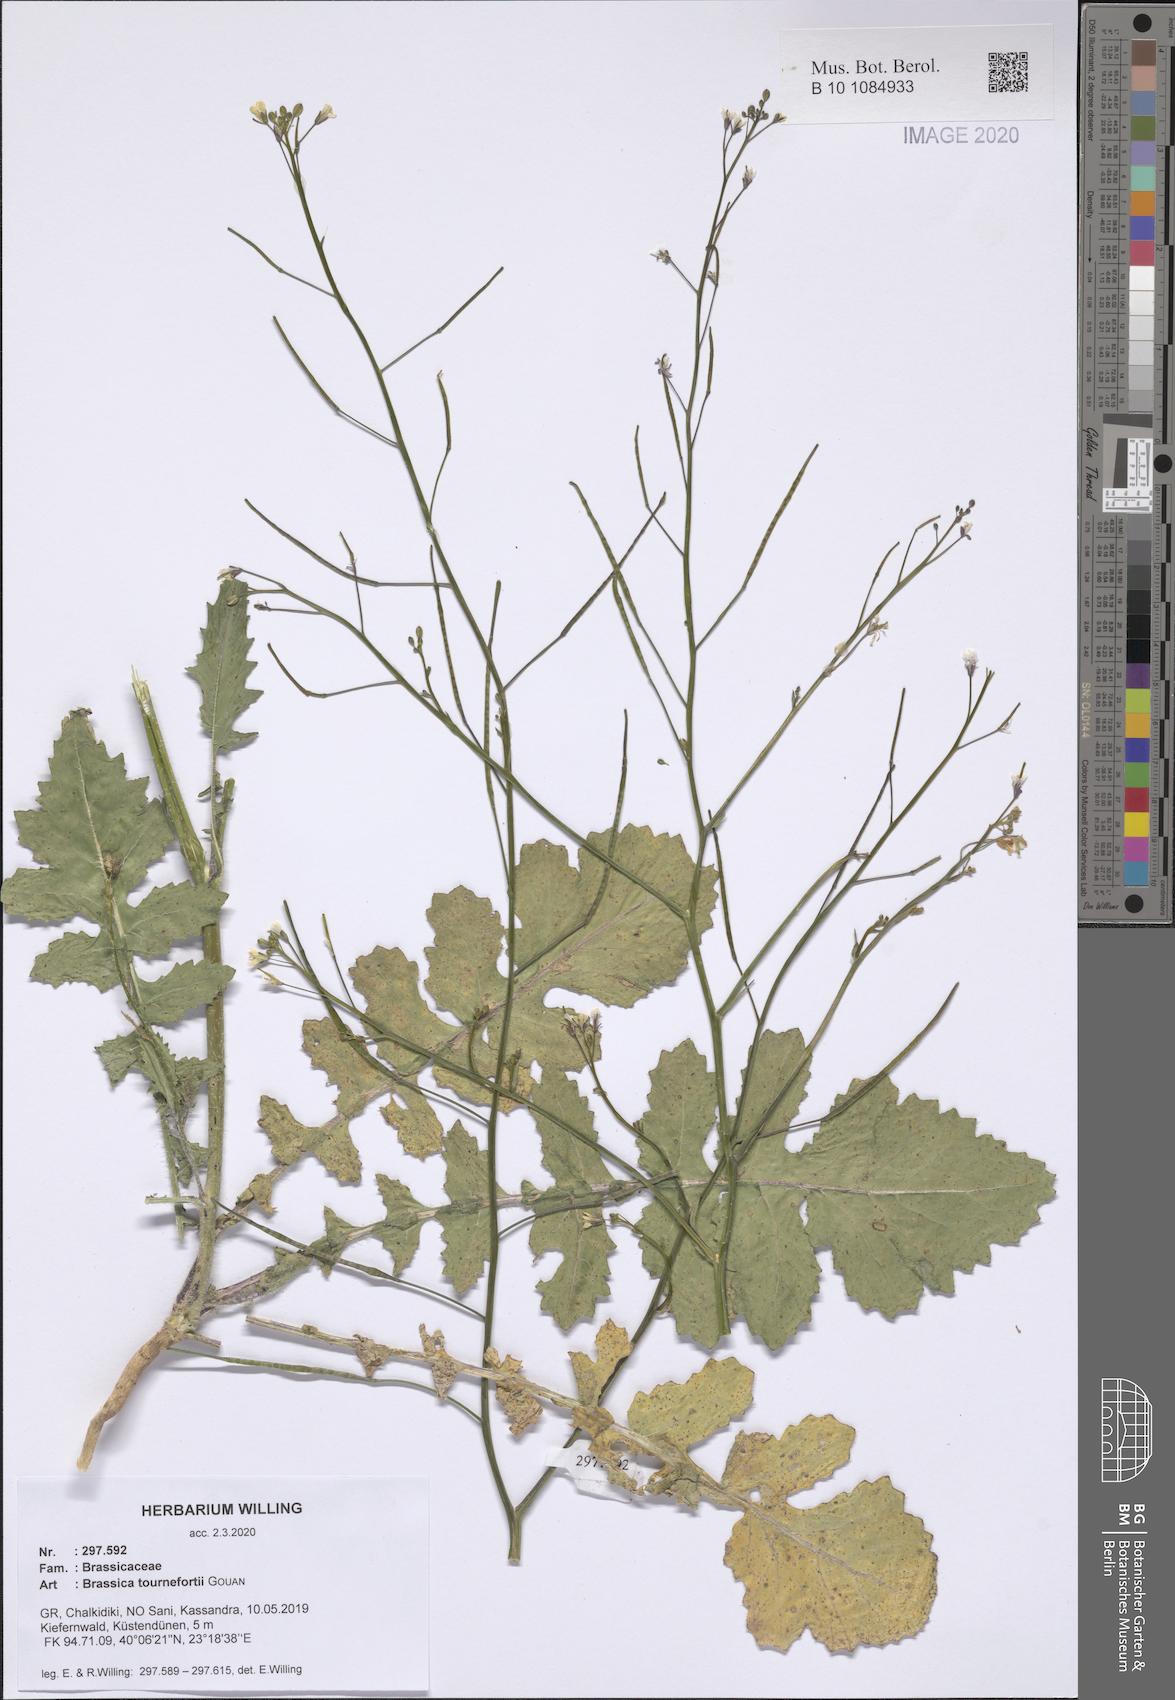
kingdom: Plantae
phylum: Tracheophyta
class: Magnoliopsida
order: Brassicales
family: Brassicaceae
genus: Brassica
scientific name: Brassica tournefortii
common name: Pale cabbage
